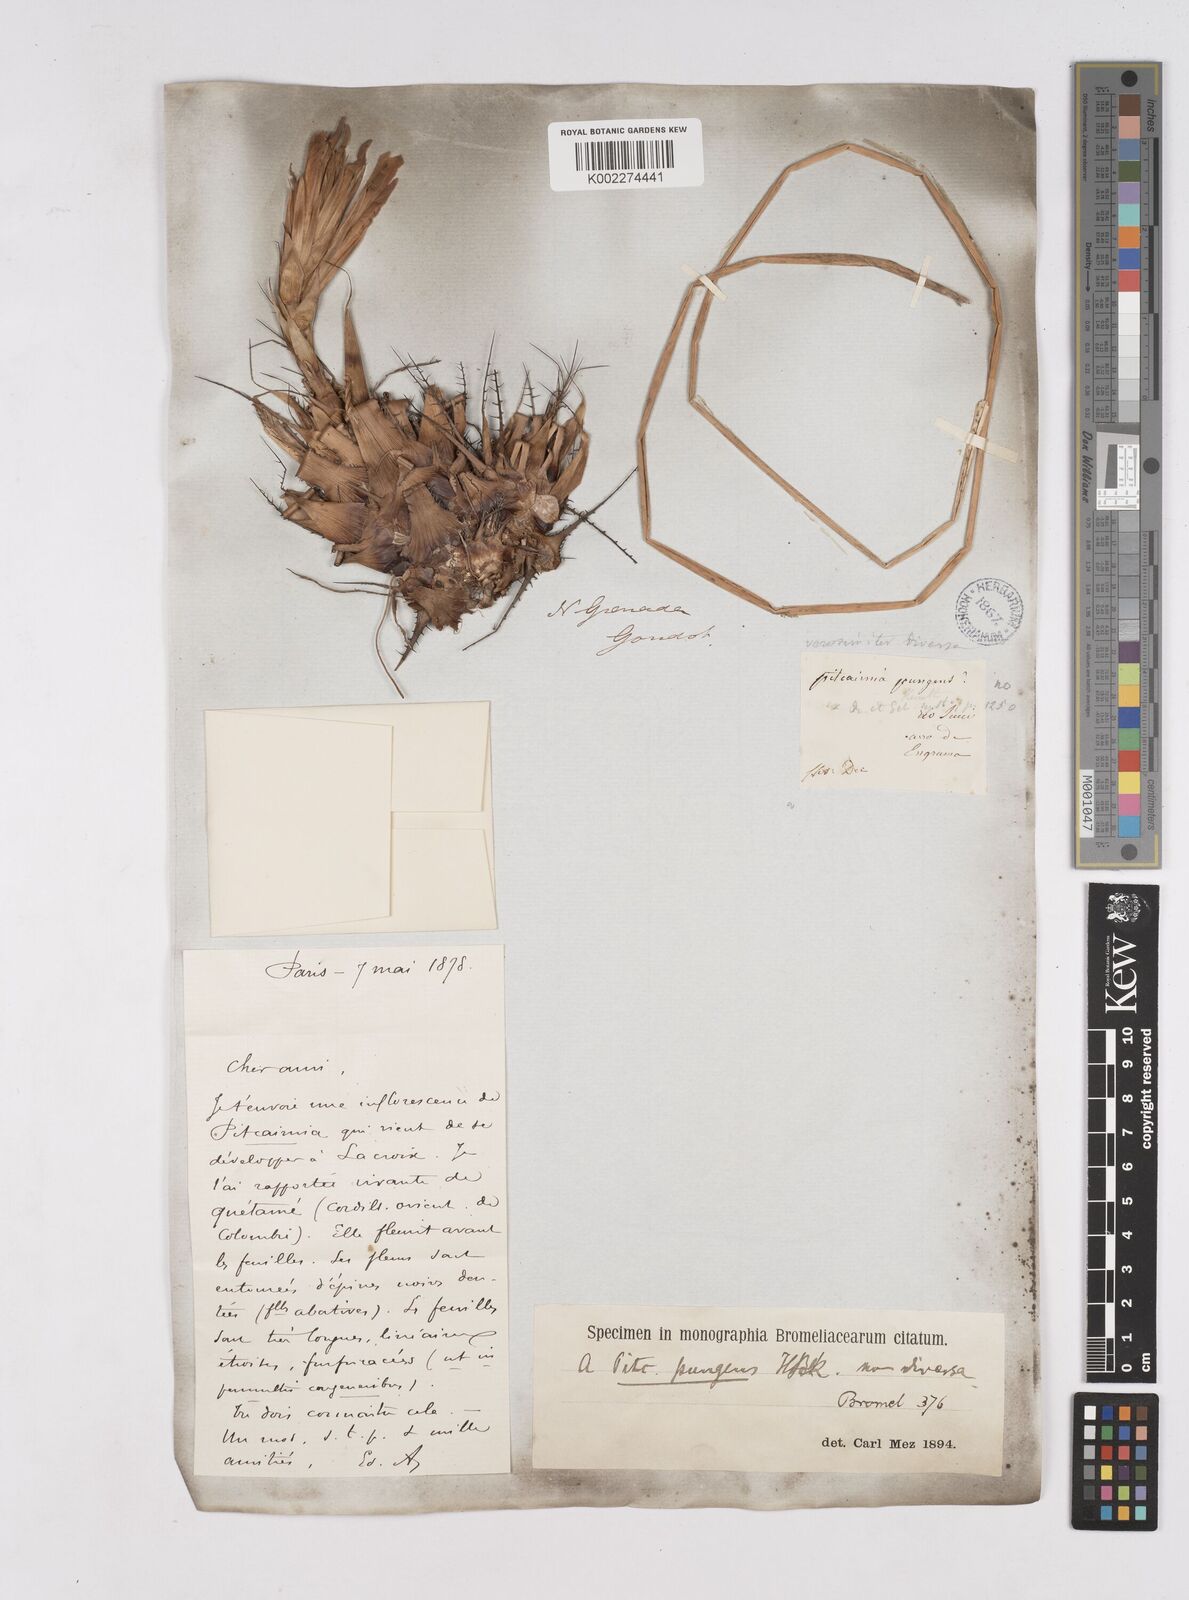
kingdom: Plantae
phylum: Tracheophyta
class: Liliopsida
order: Poales
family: Bromeliaceae
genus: Pitcairnia
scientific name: Pitcairnia heterophylla
